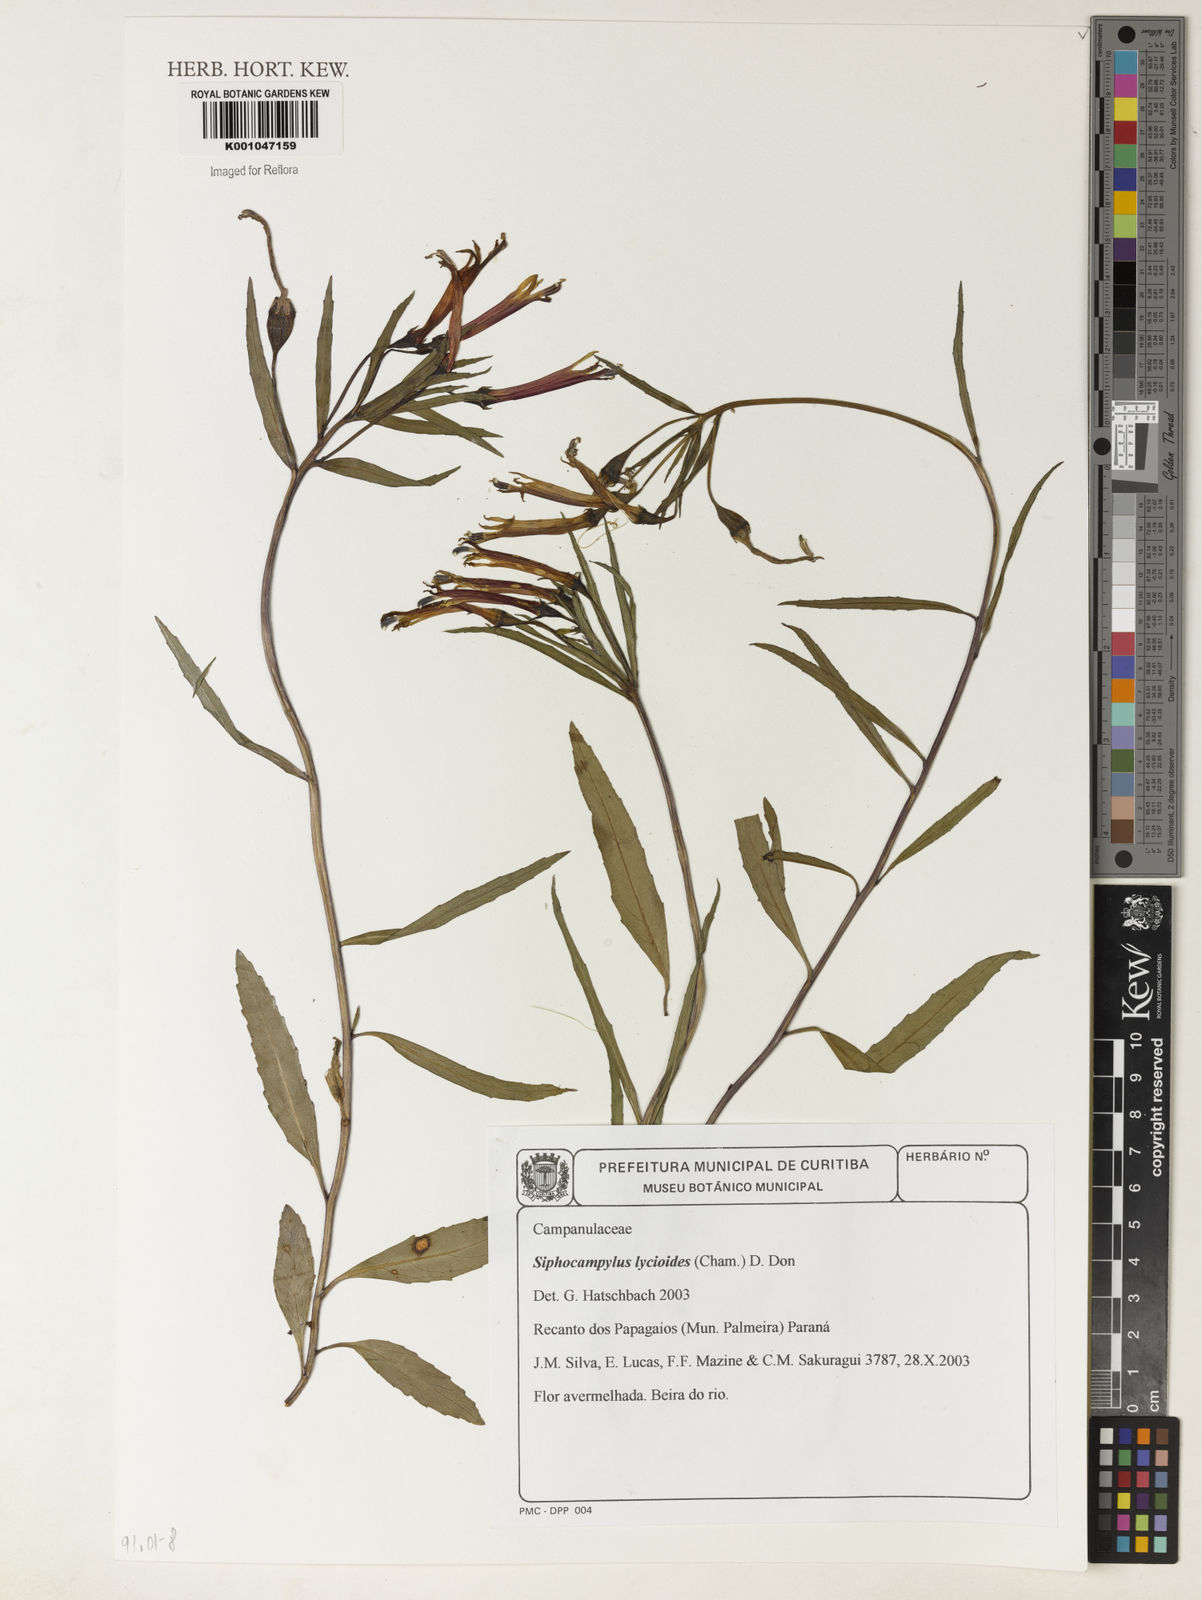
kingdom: Plantae
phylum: Tracheophyta
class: Magnoliopsida
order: Asterales
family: Campanulaceae
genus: Siphocampylus
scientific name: Siphocampylus lycioides
